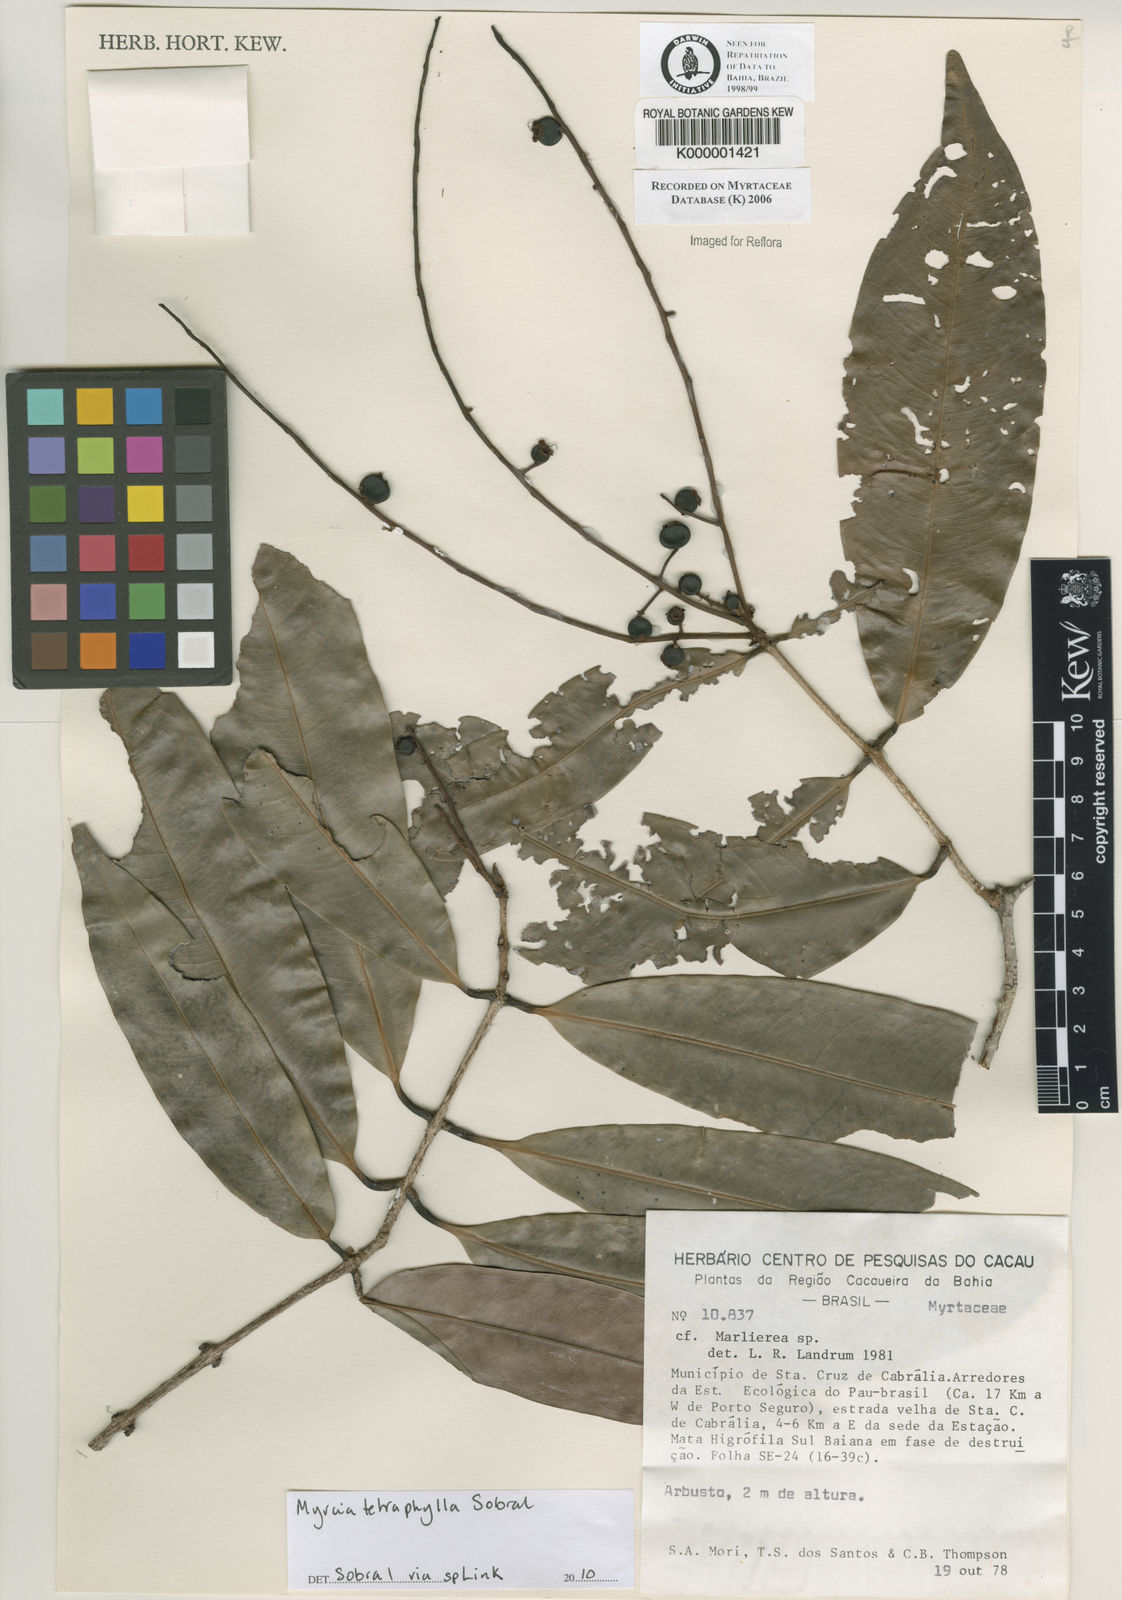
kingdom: Plantae
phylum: Tracheophyta
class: Magnoliopsida
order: Myrtales
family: Myrtaceae
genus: Marlierea
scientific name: Marlierea
